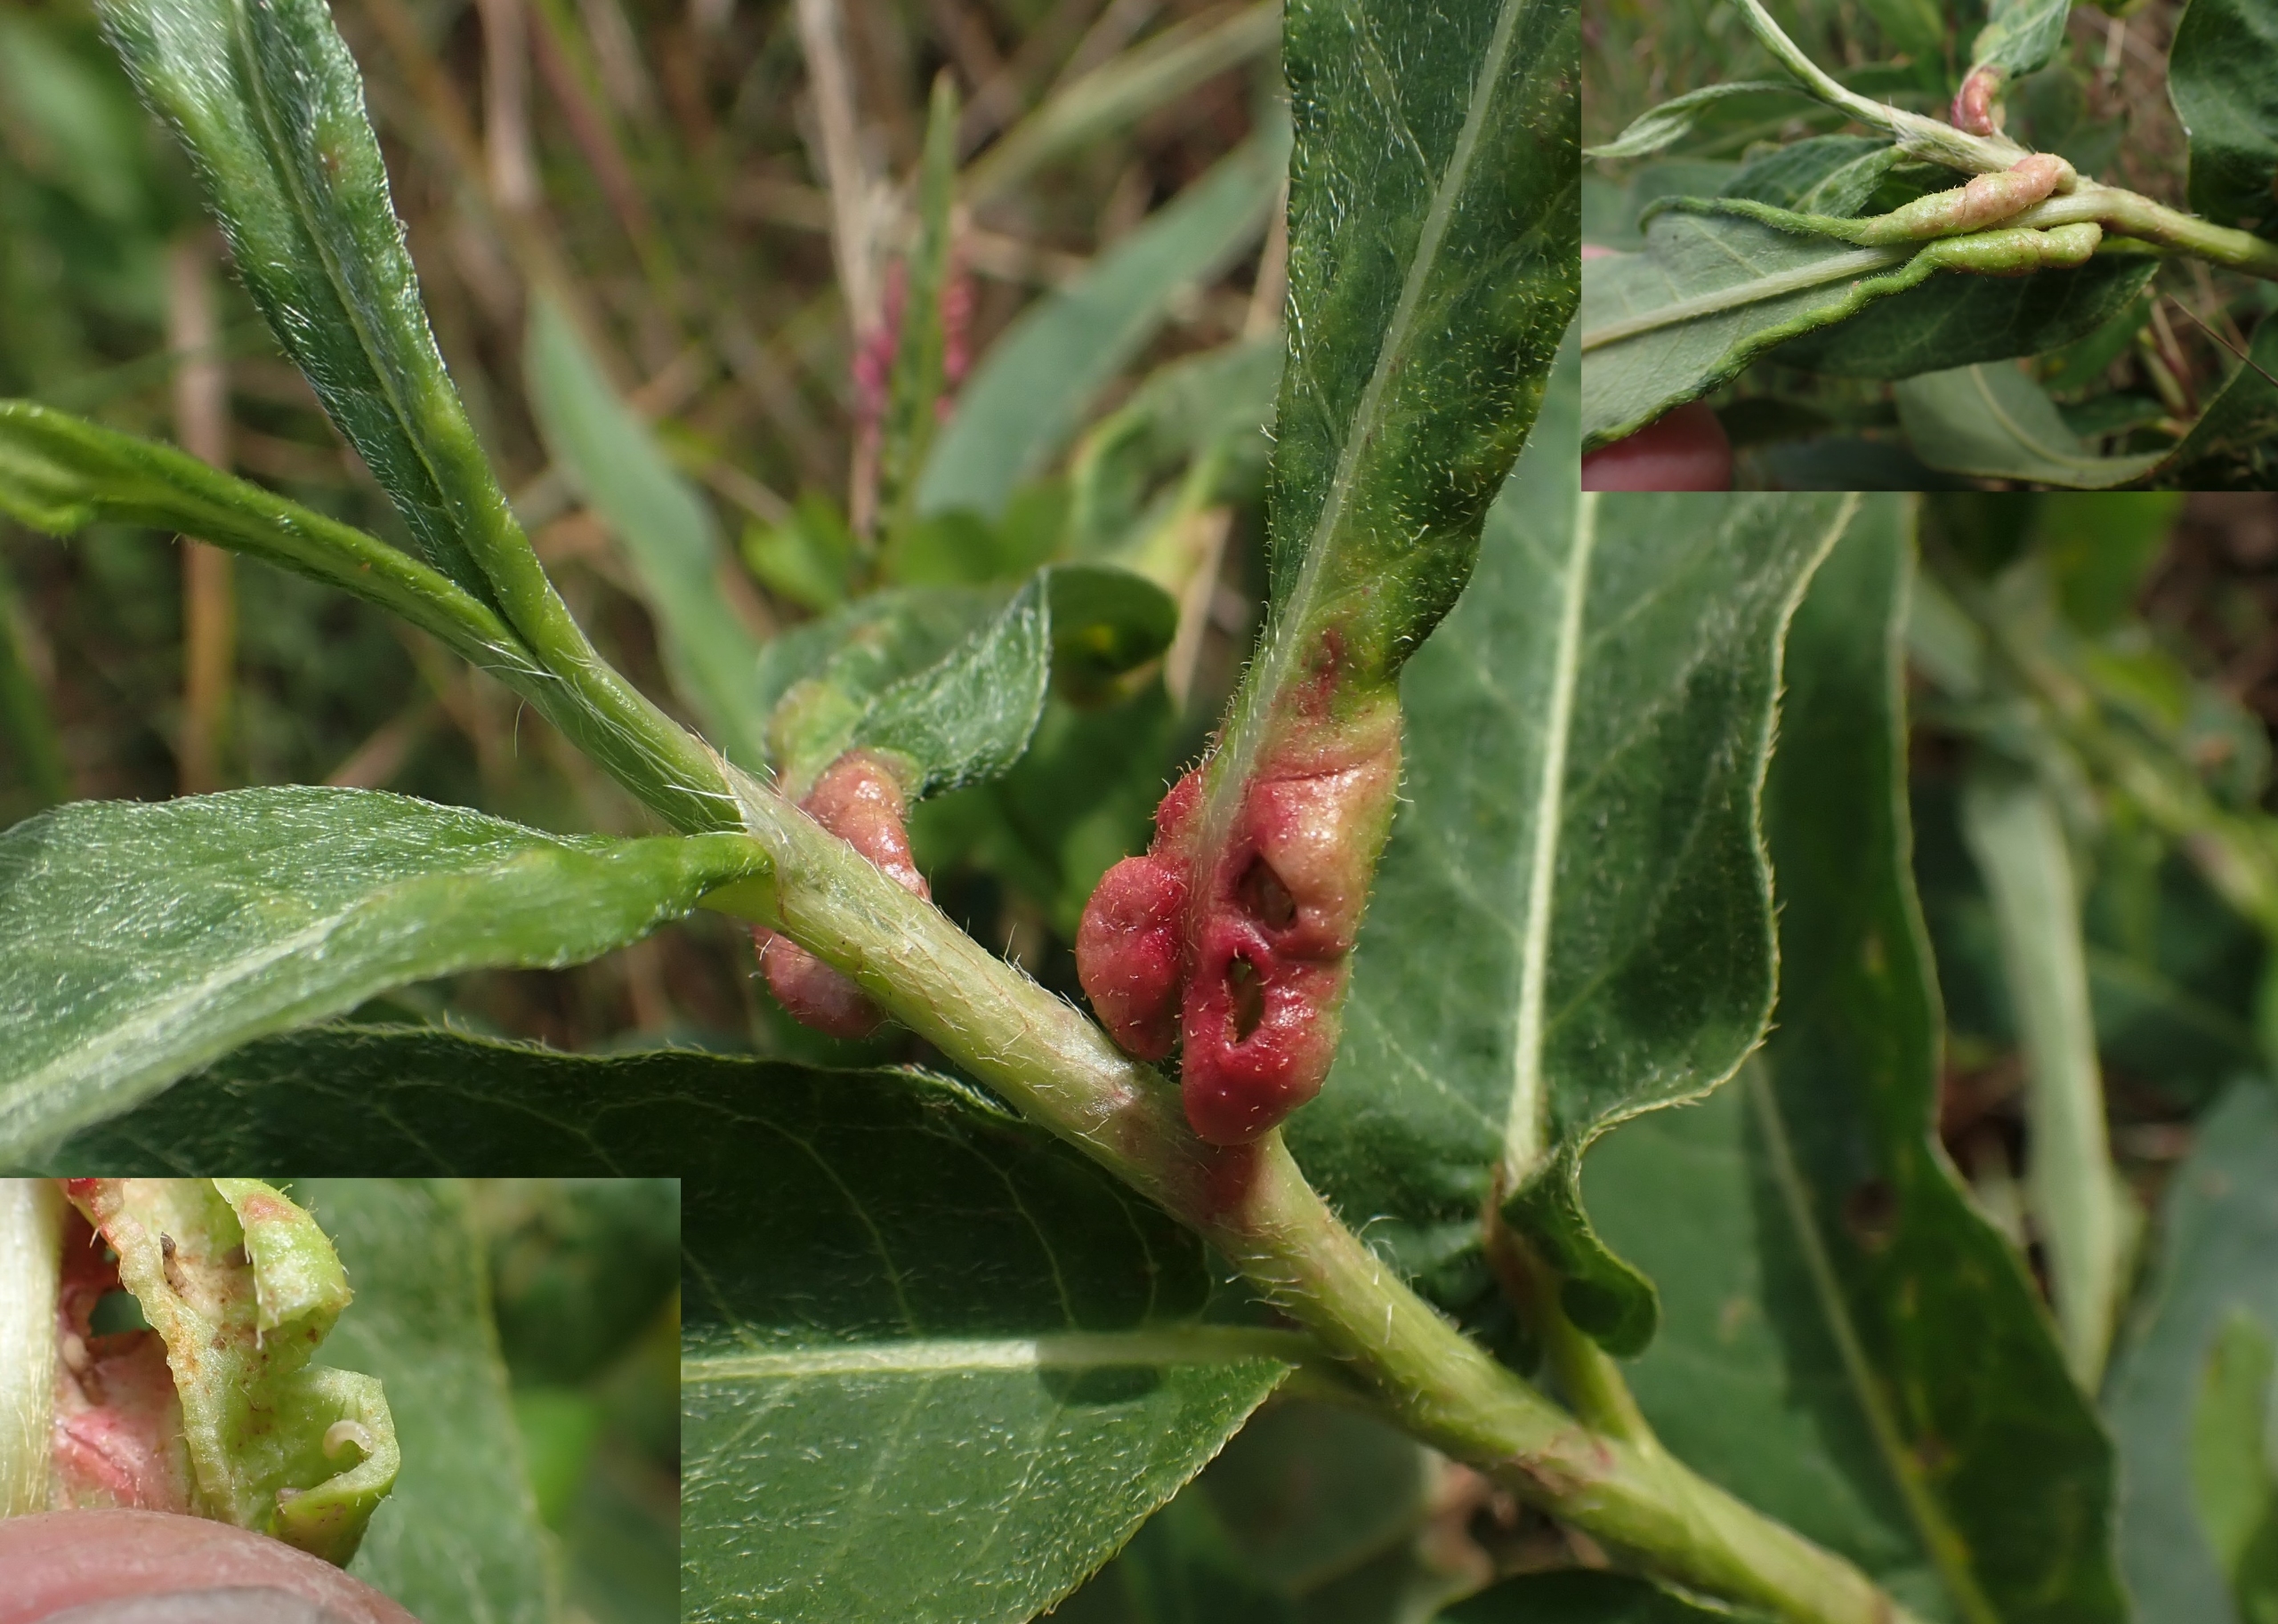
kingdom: Animalia
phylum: Arthropoda
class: Insecta
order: Diptera
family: Cecidomyiidae
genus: Wachtliella
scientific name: Wachtliella persicariae
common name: Pileurtgalmyg
